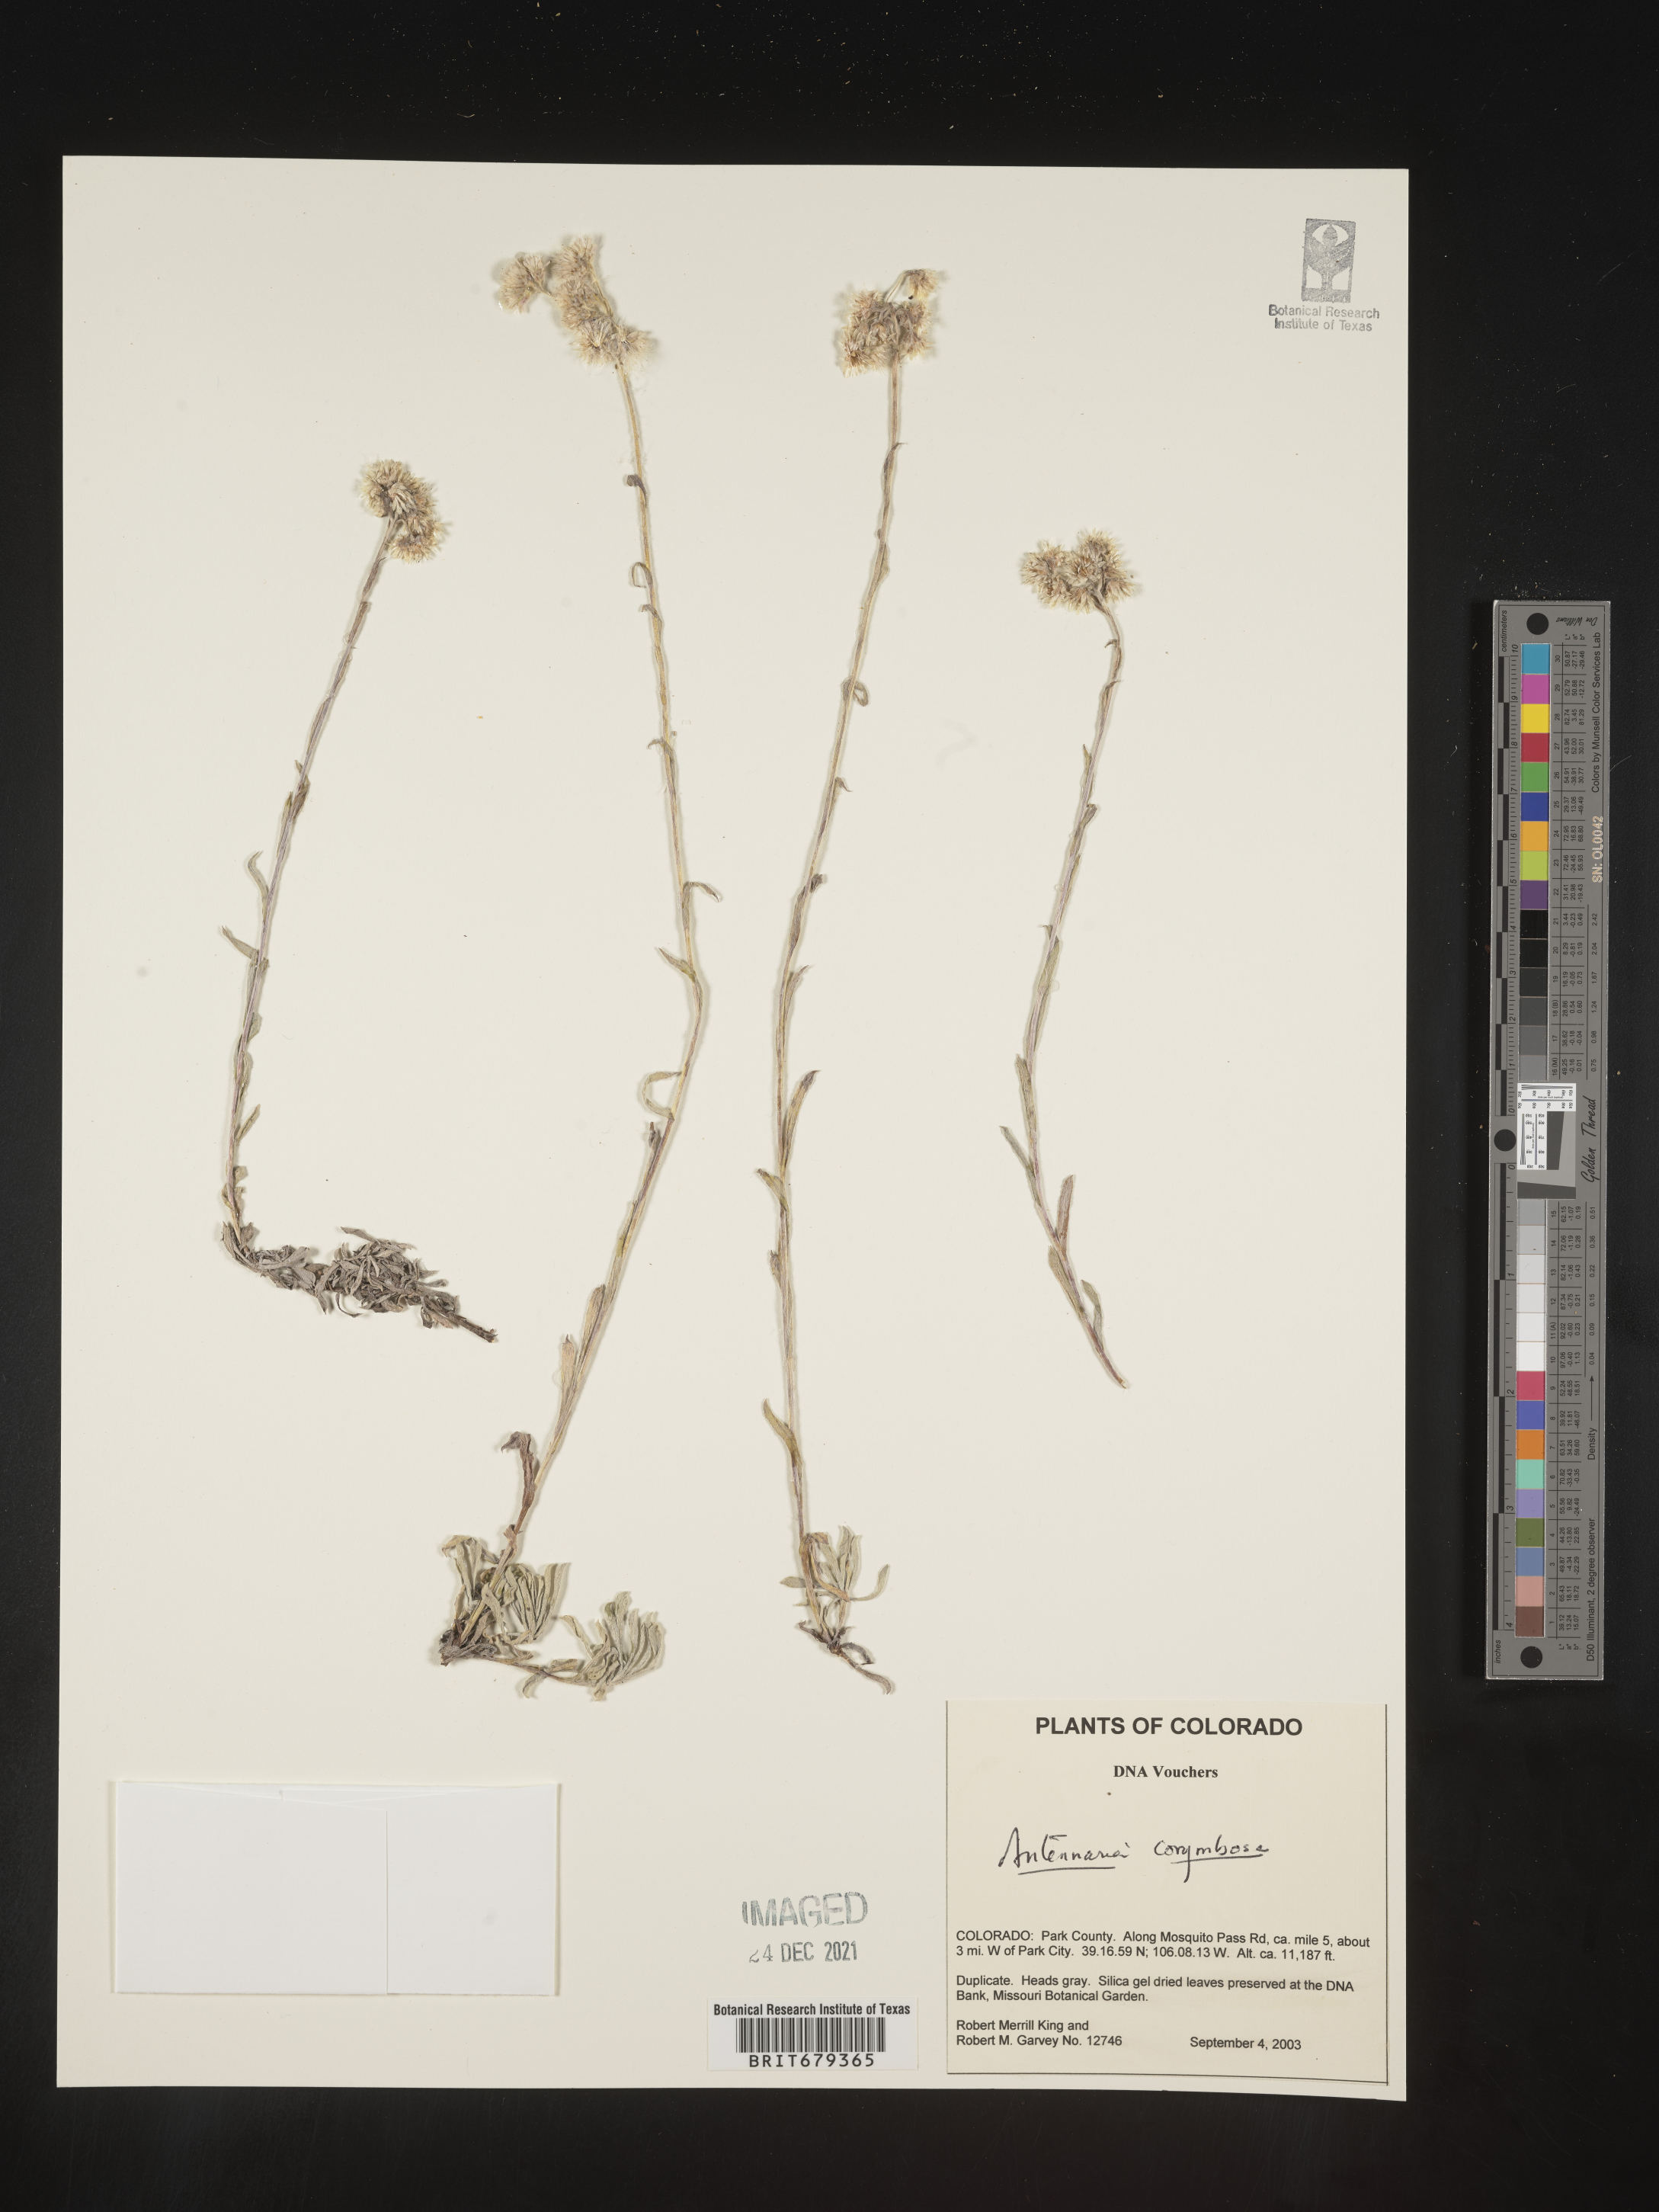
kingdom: Plantae
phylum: Tracheophyta
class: Magnoliopsida
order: Asterales
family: Asteraceae
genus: Antennaria
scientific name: Antennaria corymbosa
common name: Meadow pussytoes
